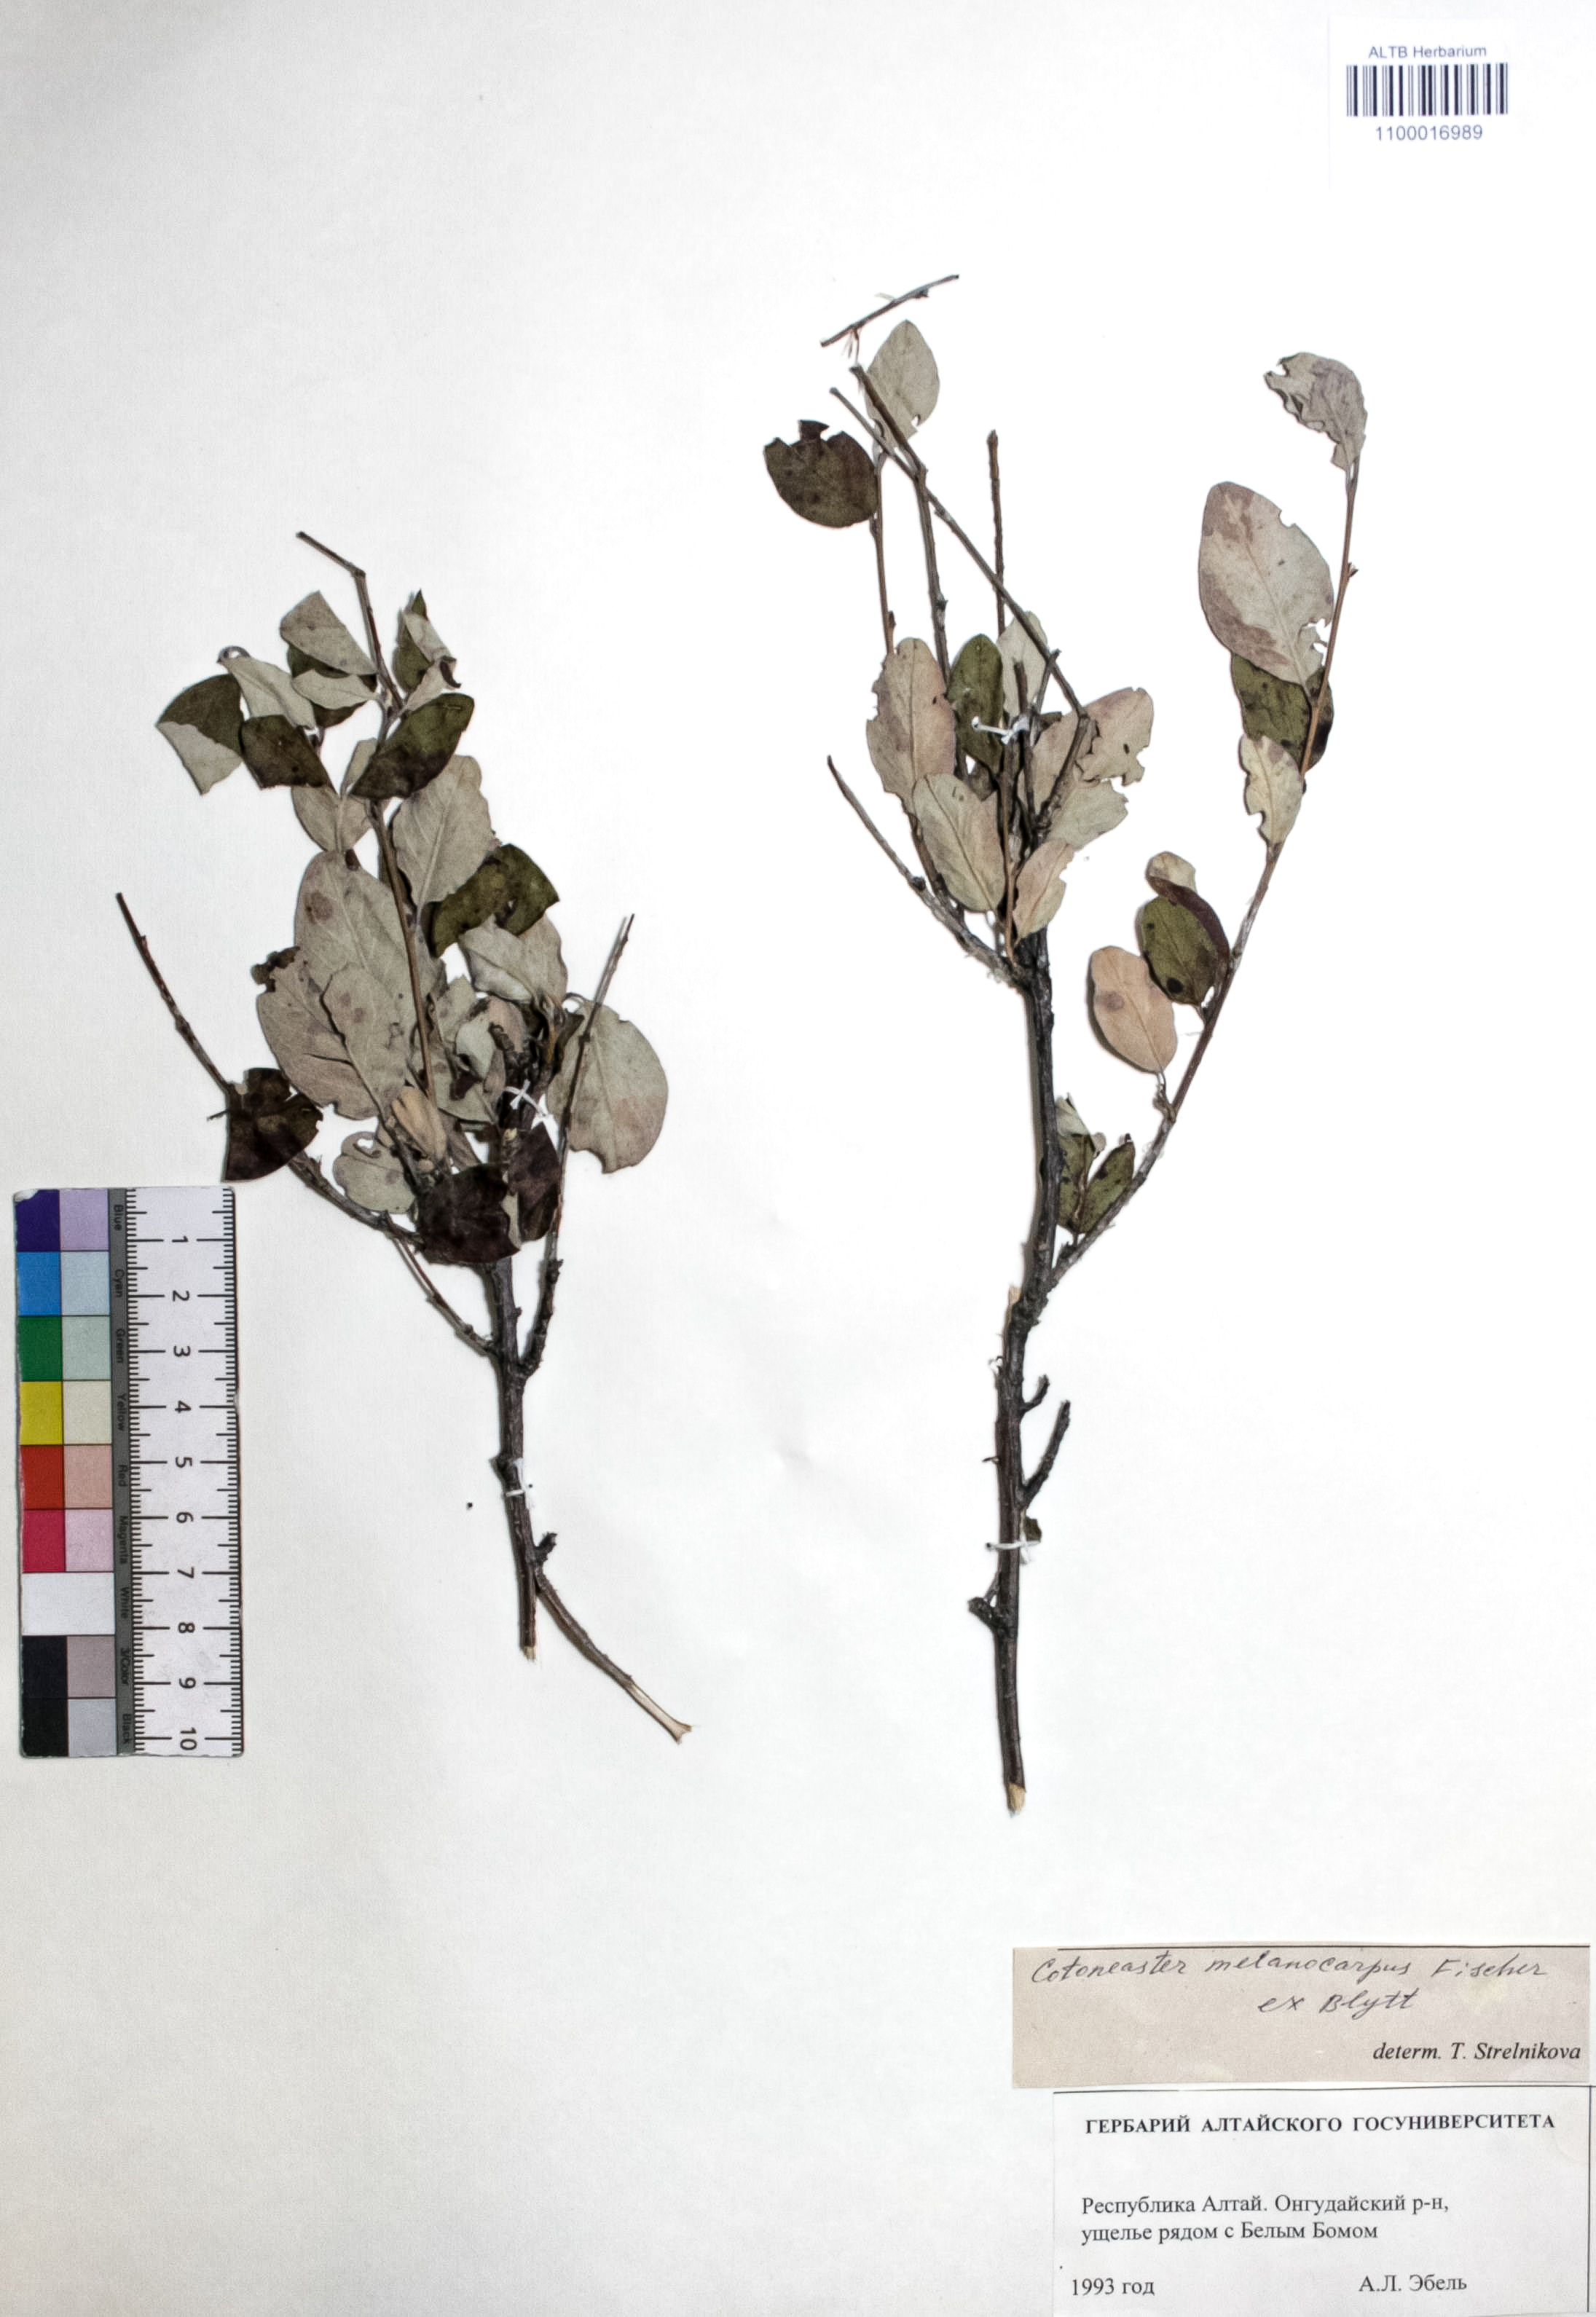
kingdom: Plantae
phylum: Tracheophyta
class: Magnoliopsida
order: Rosales
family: Rosaceae
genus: Cotoneaster
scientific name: Cotoneaster niger
